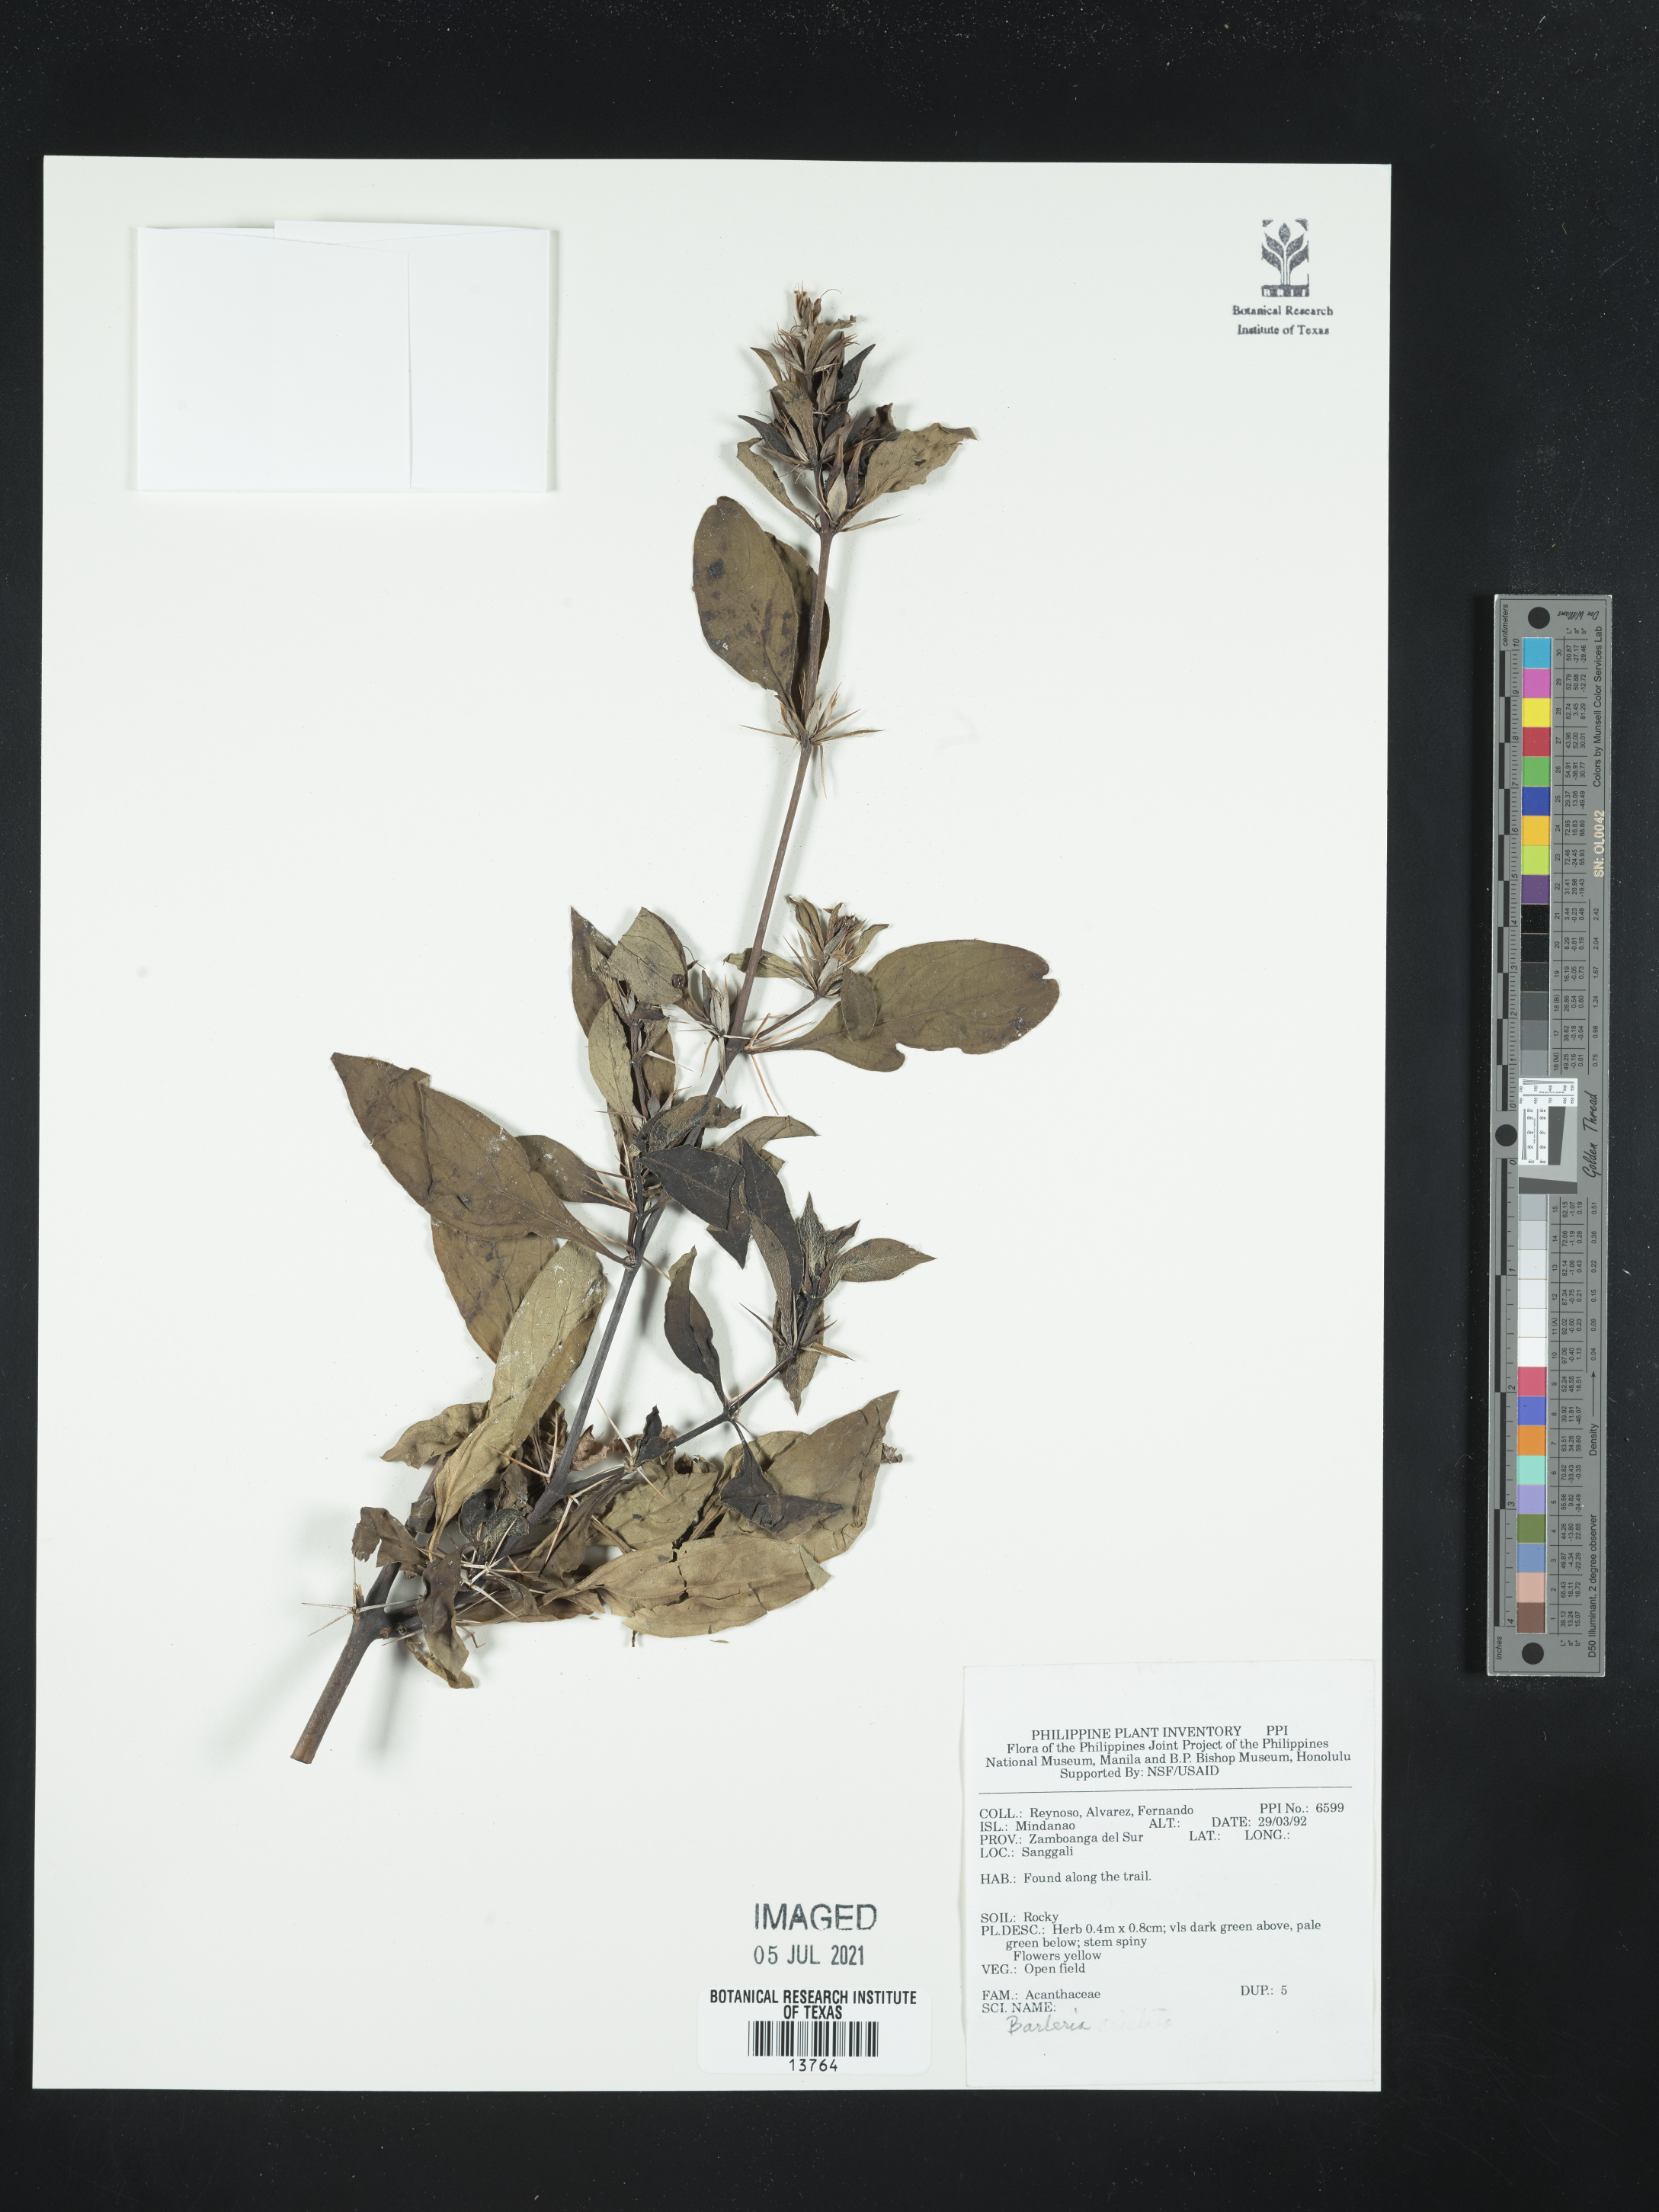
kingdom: Plantae
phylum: Tracheophyta
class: Magnoliopsida
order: Lamiales
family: Acanthaceae
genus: Barleria
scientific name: Barleria
